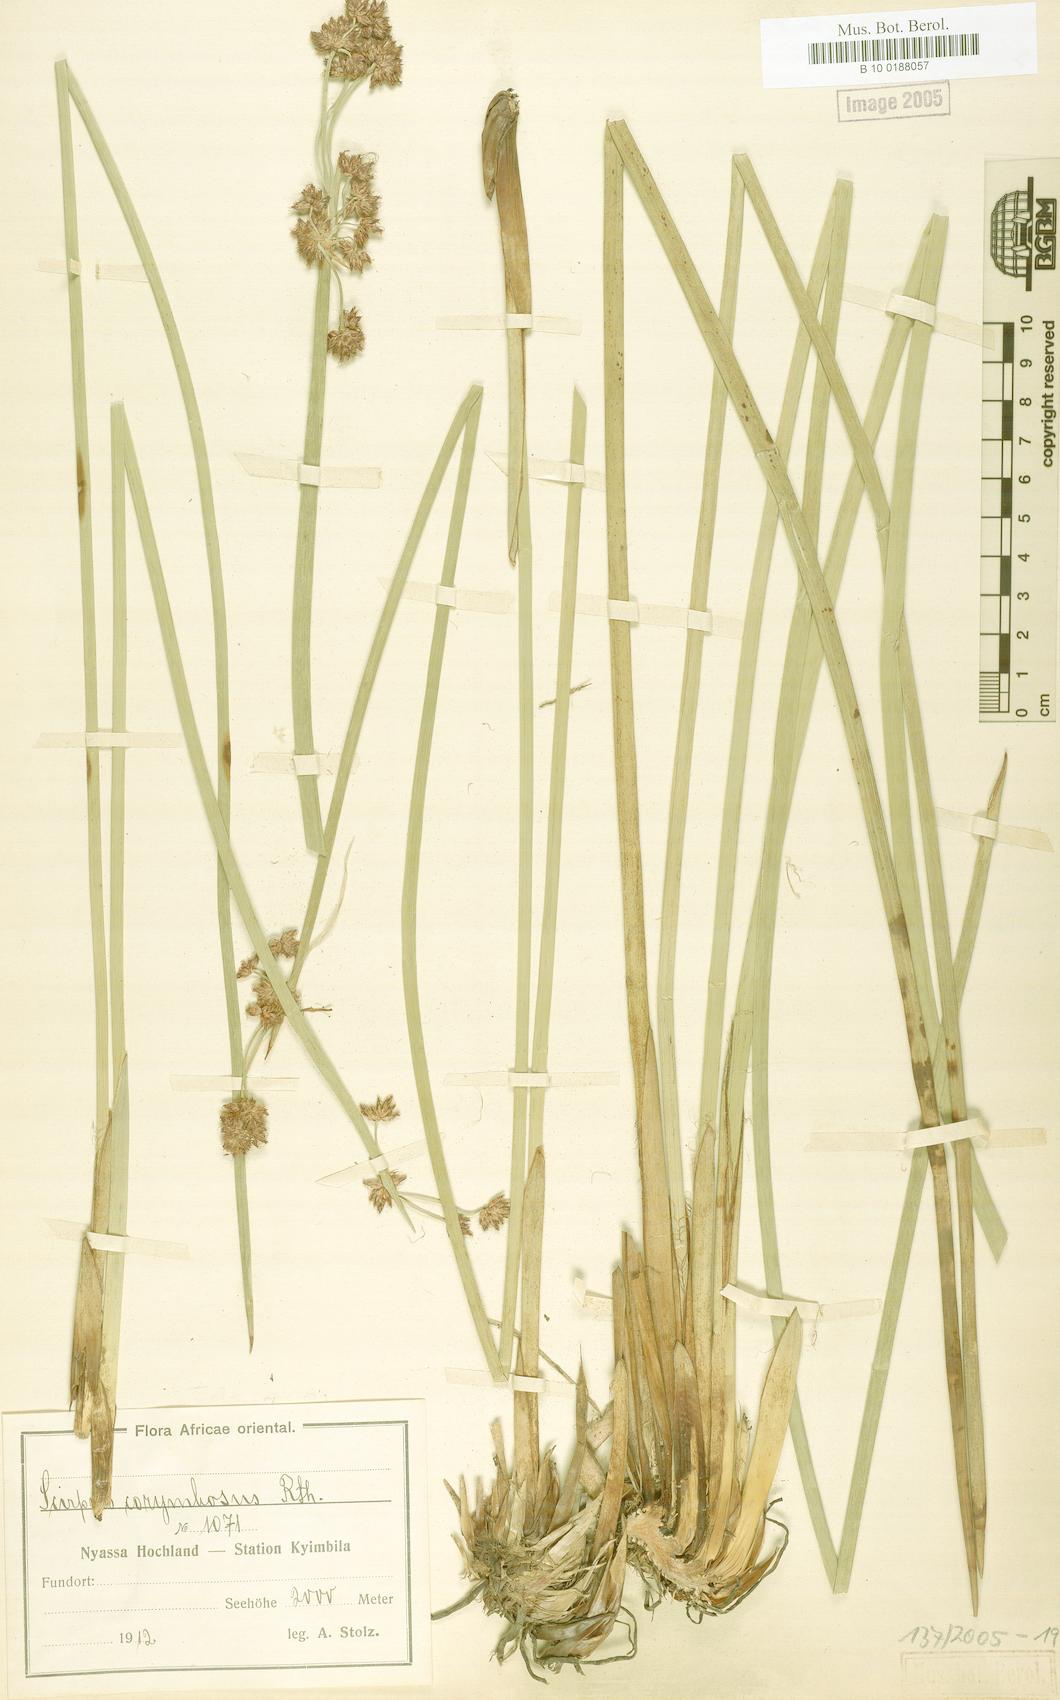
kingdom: Plantae
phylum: Tracheophyta
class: Liliopsida
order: Poales
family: Cyperaceae
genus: Scirpus
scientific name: Scirpus corymbosus
